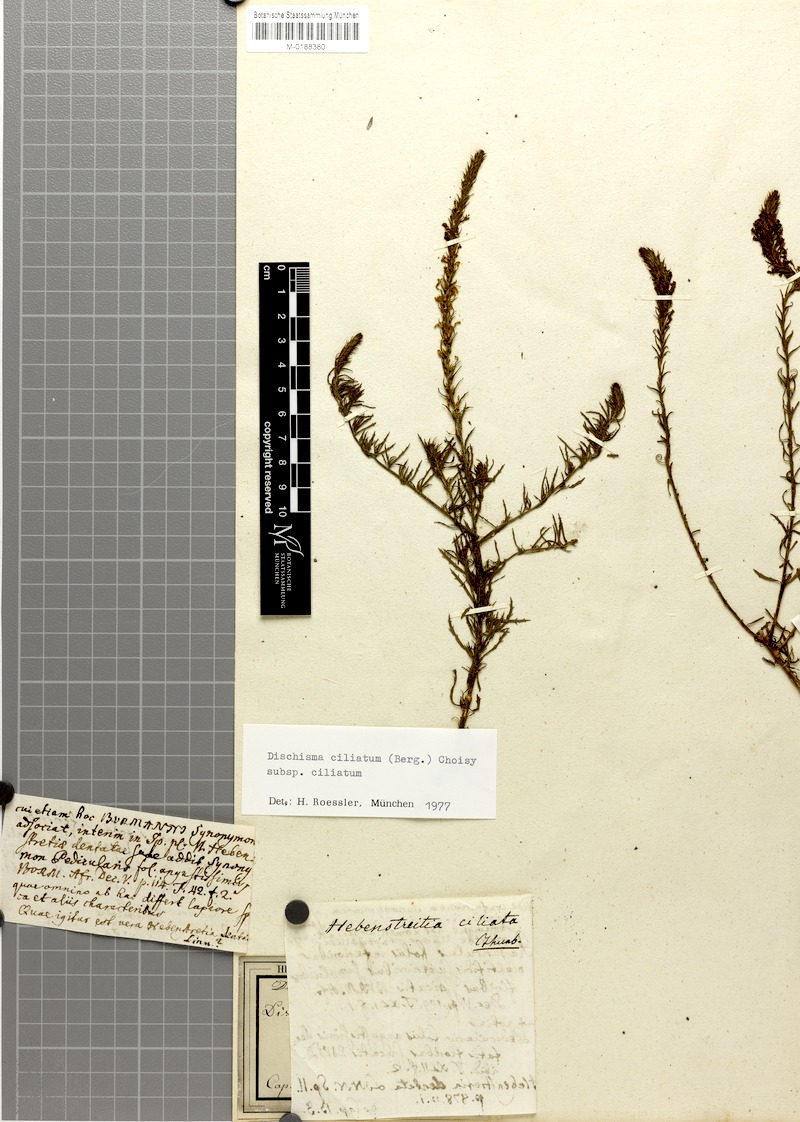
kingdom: Plantae
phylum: Tracheophyta
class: Magnoliopsida
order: Lamiales
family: Scrophulariaceae
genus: Dischisma
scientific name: Dischisma ciliatum
